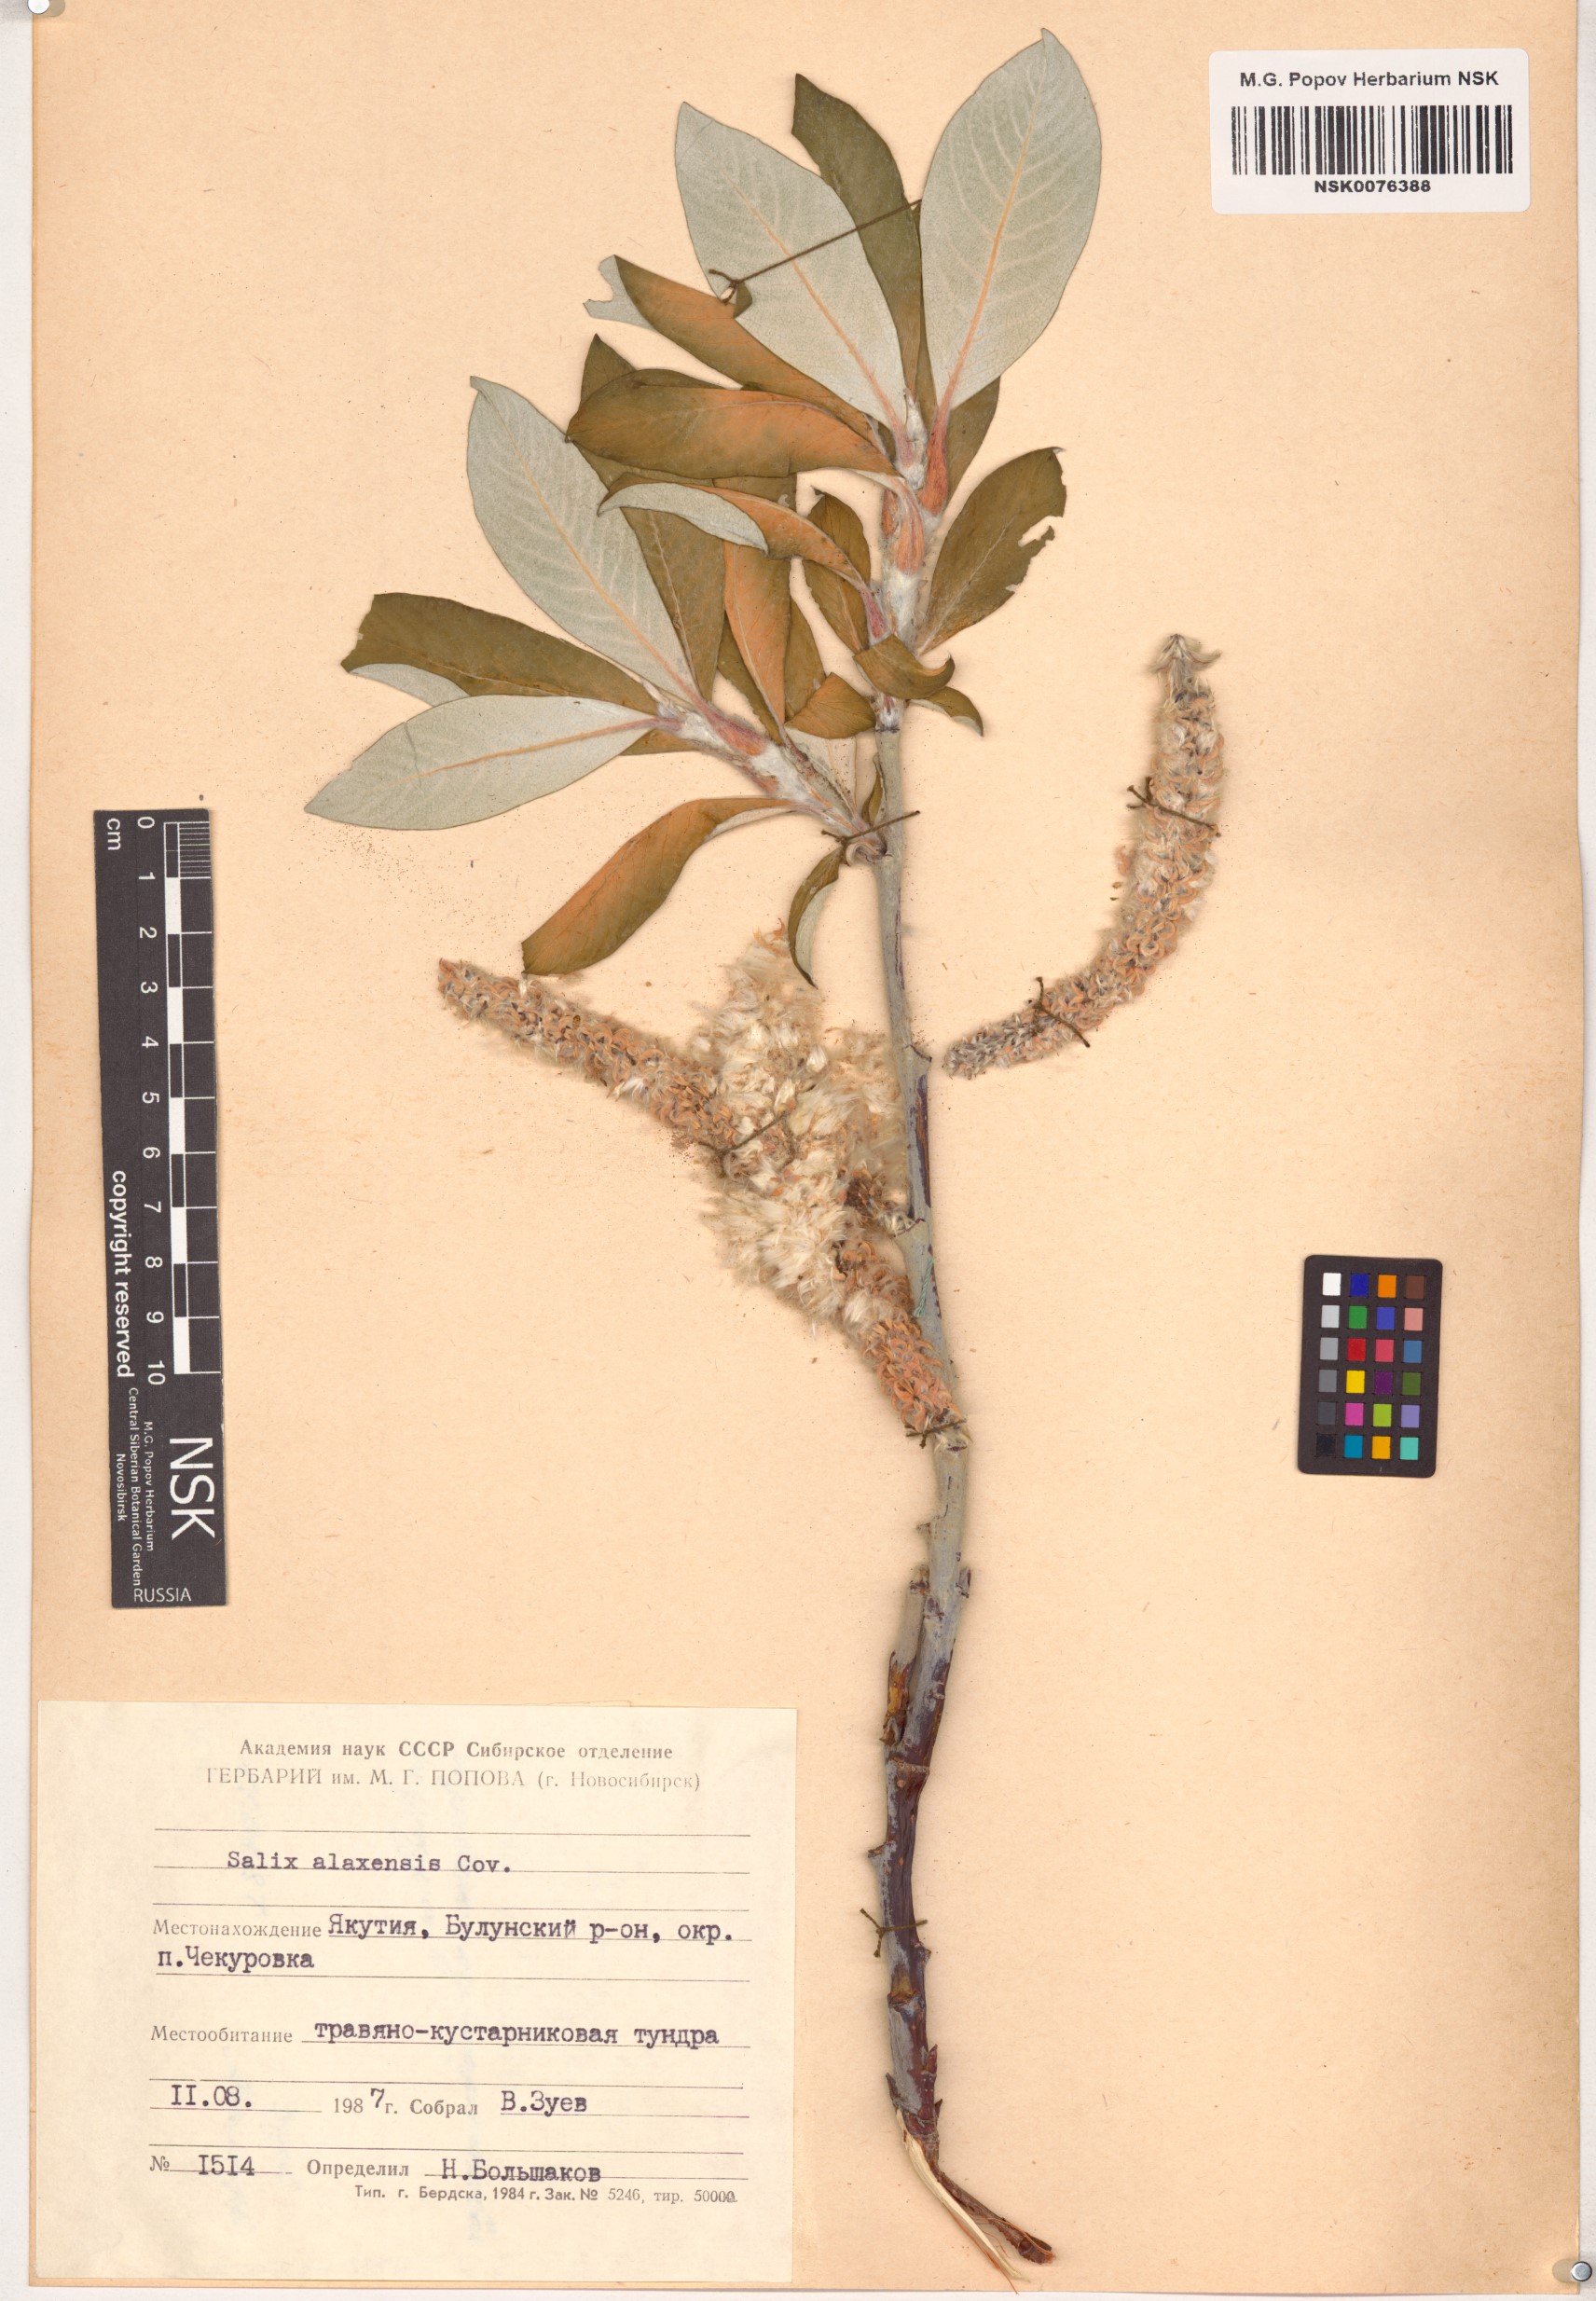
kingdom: Plantae
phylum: Tracheophyta
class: Magnoliopsida
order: Malpighiales
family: Salicaceae
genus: Salix
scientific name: Salix alaxensis
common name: Feltleaf willow
